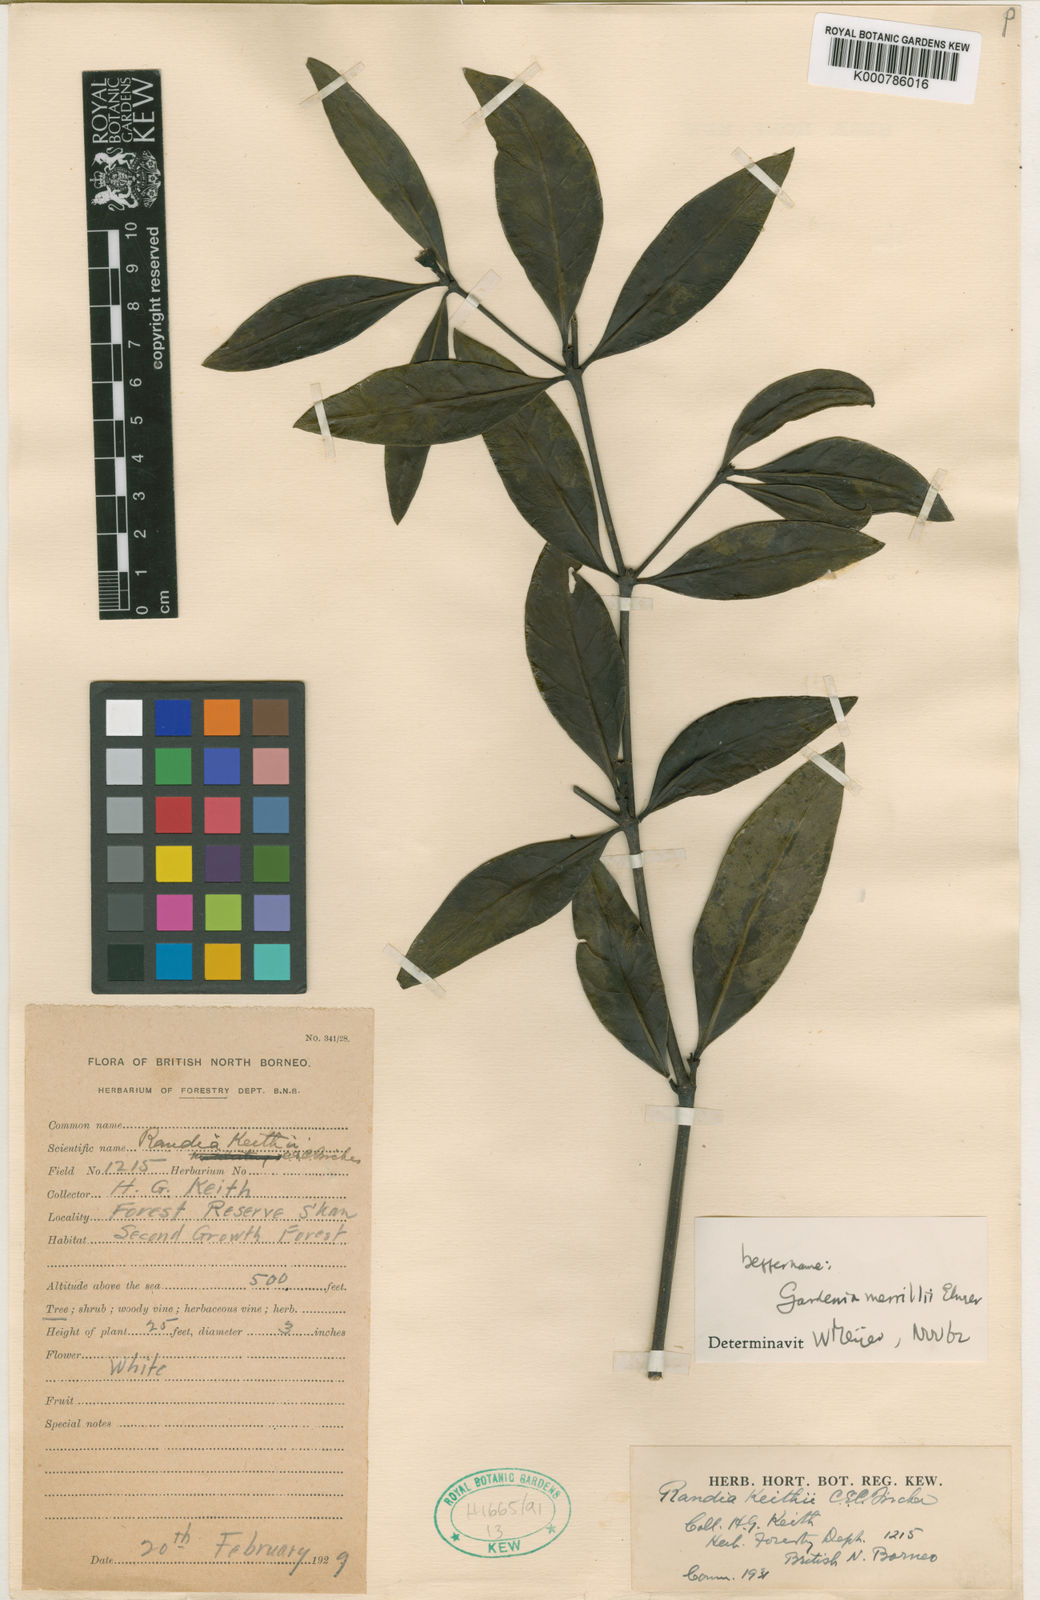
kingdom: Plantae
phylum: Tracheophyta
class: Magnoliopsida
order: Gentianales
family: Rubiaceae
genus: Ridsdalea
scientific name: Ridsdalea merrillii
